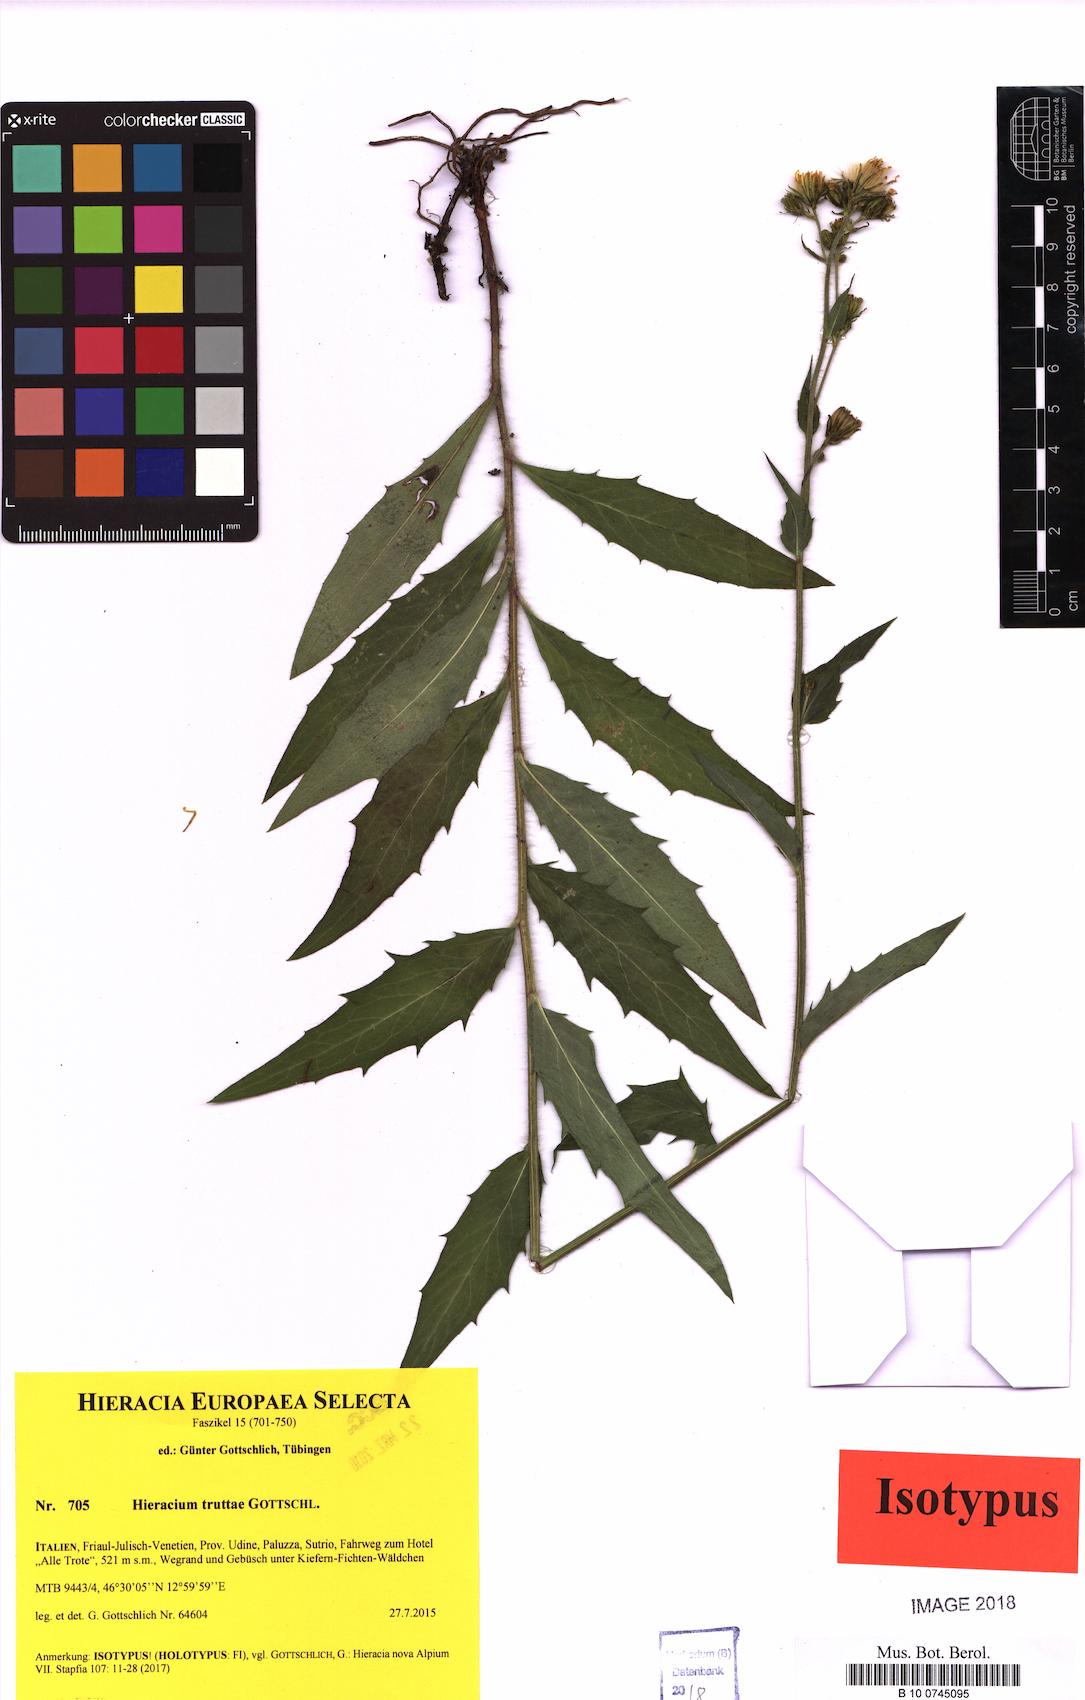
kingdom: Plantae
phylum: Tracheophyta
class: Magnoliopsida
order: Asterales
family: Asteraceae
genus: Hieracium
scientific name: Hieracium truttae
